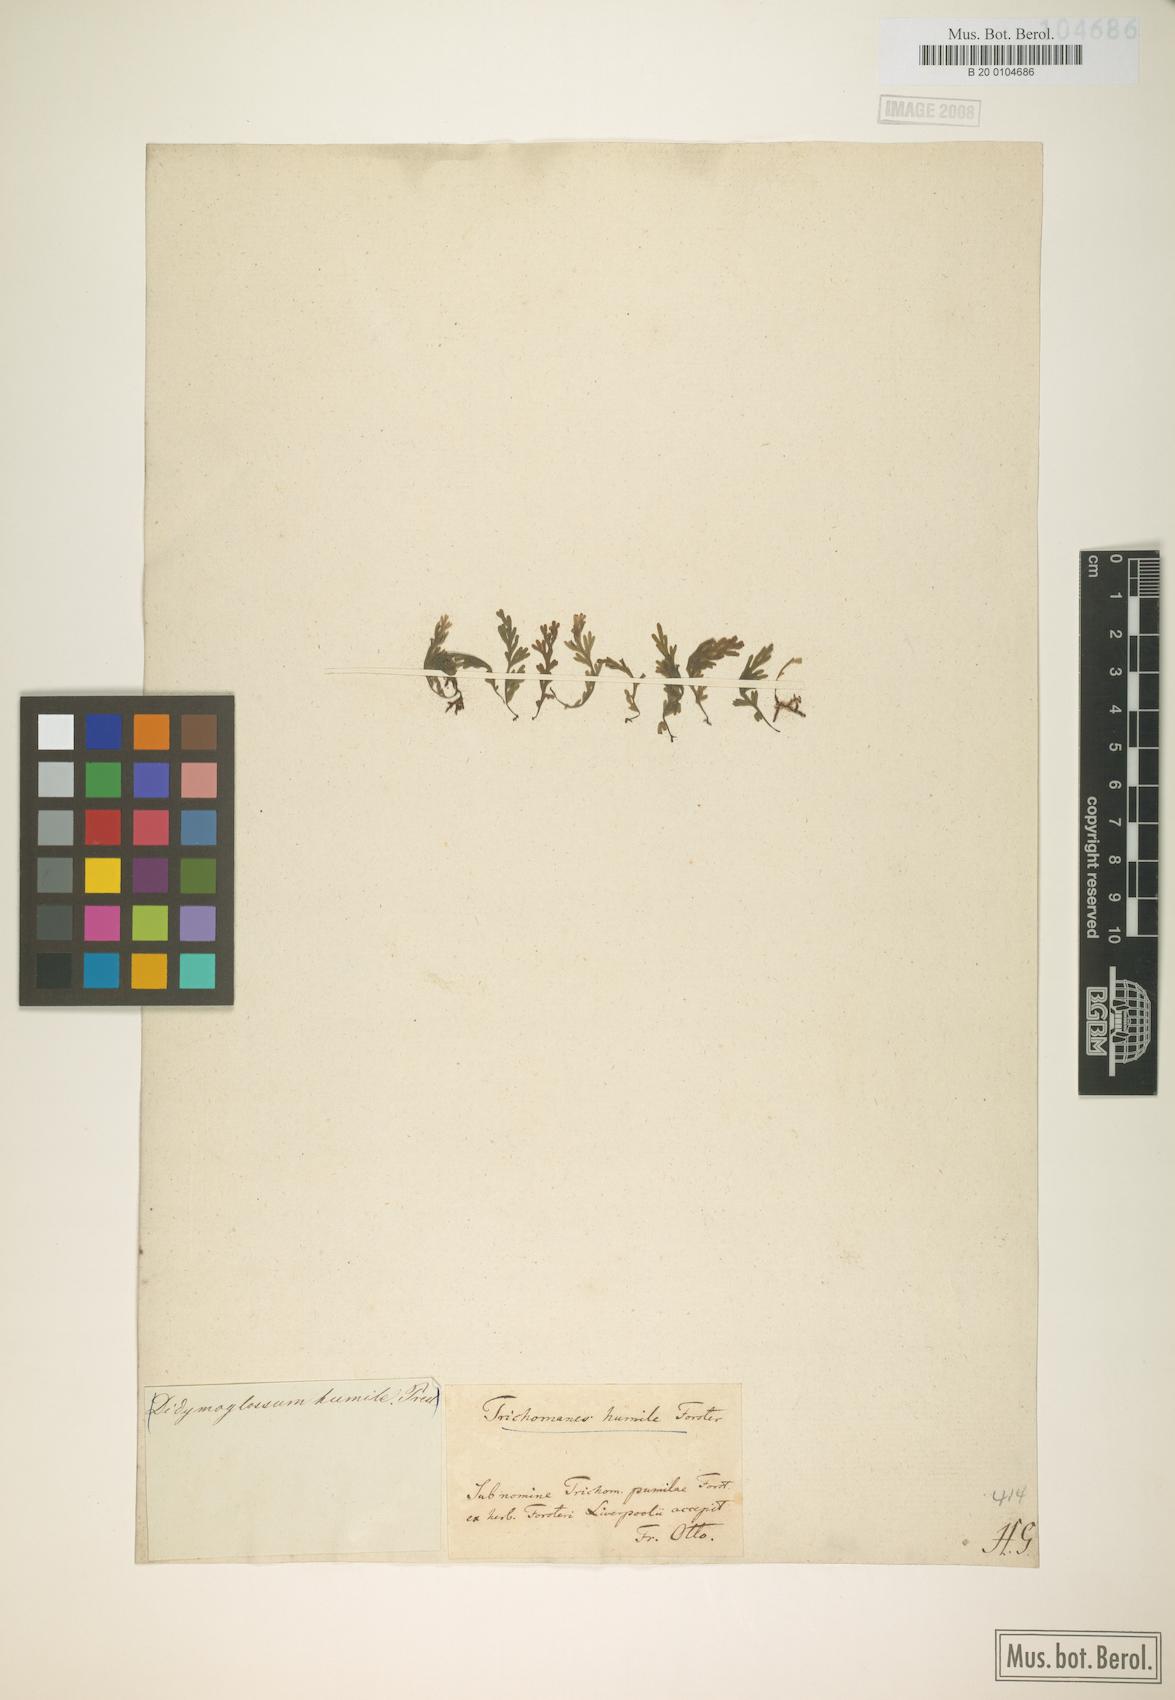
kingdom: Plantae
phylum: Tracheophyta
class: Polypodiopsida
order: Hymenophyllales
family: Hymenophyllaceae
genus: Crepidomanes
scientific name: Crepidomanes humile
